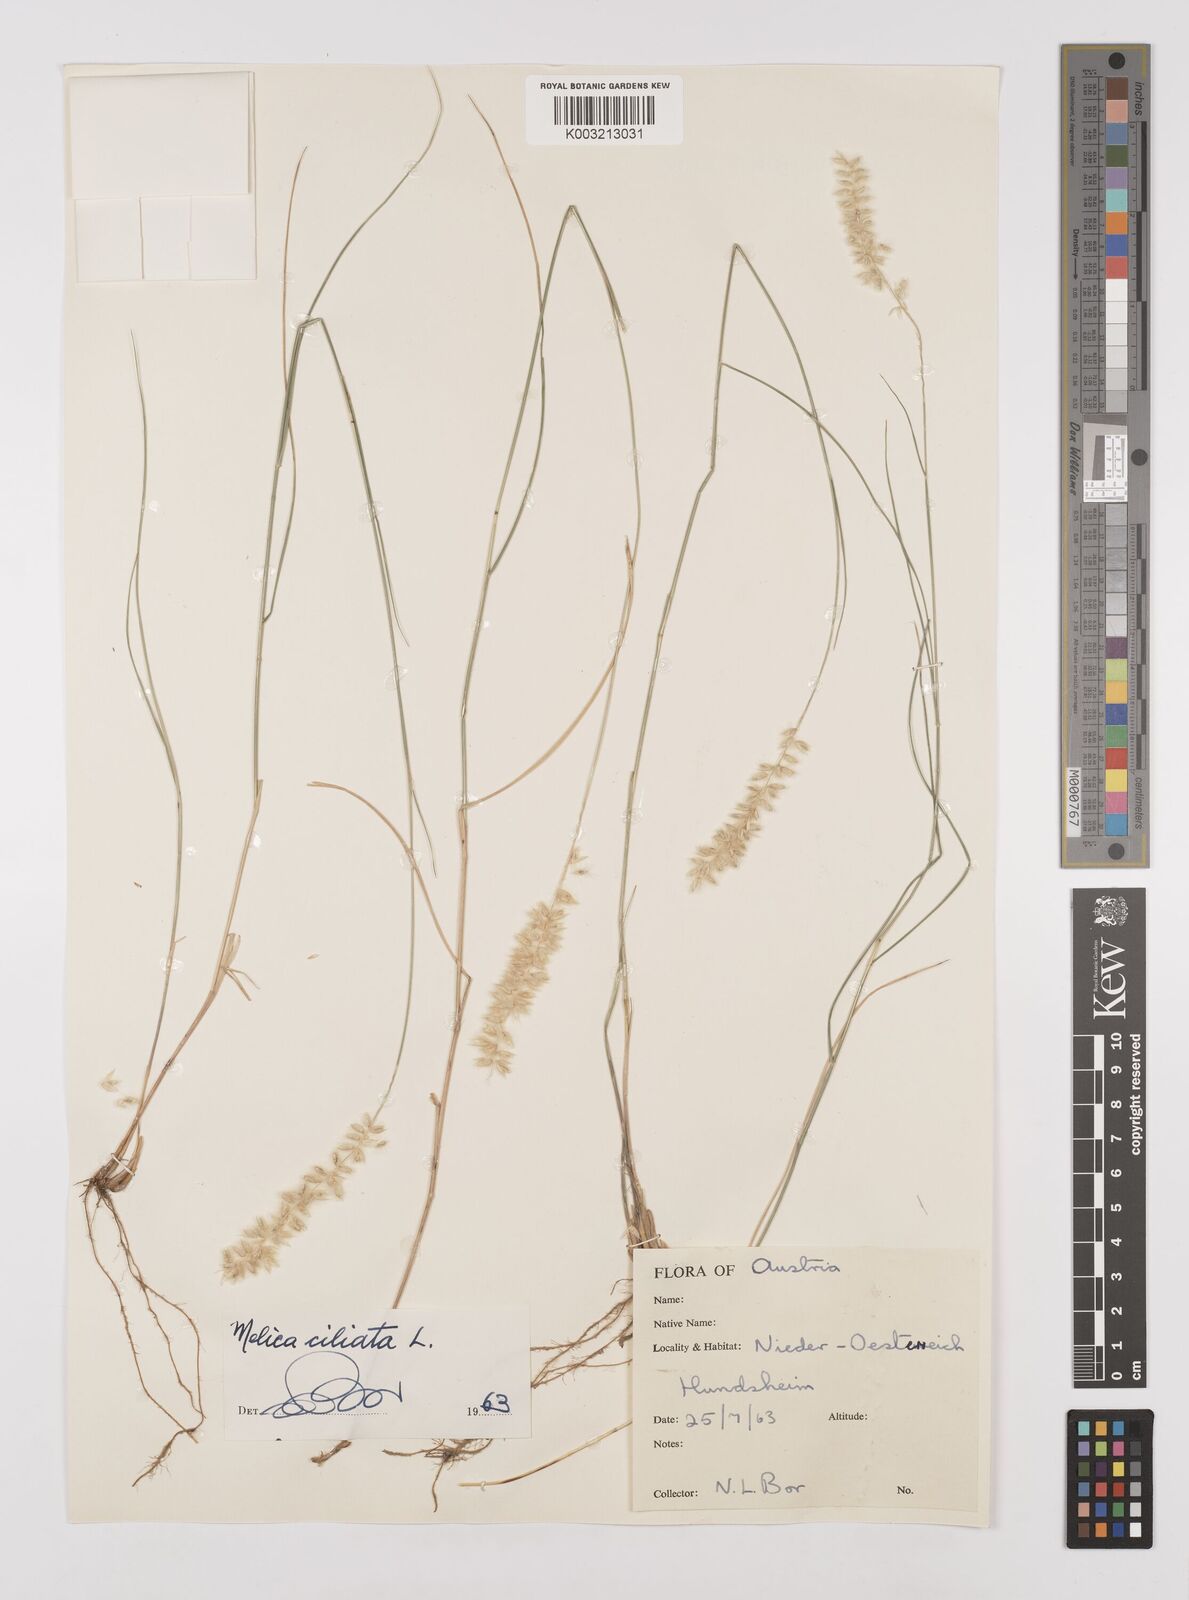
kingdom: Plantae
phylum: Tracheophyta
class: Liliopsida
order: Poales
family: Poaceae
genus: Melica
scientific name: Melica ciliata
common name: Hairy melicgrass
